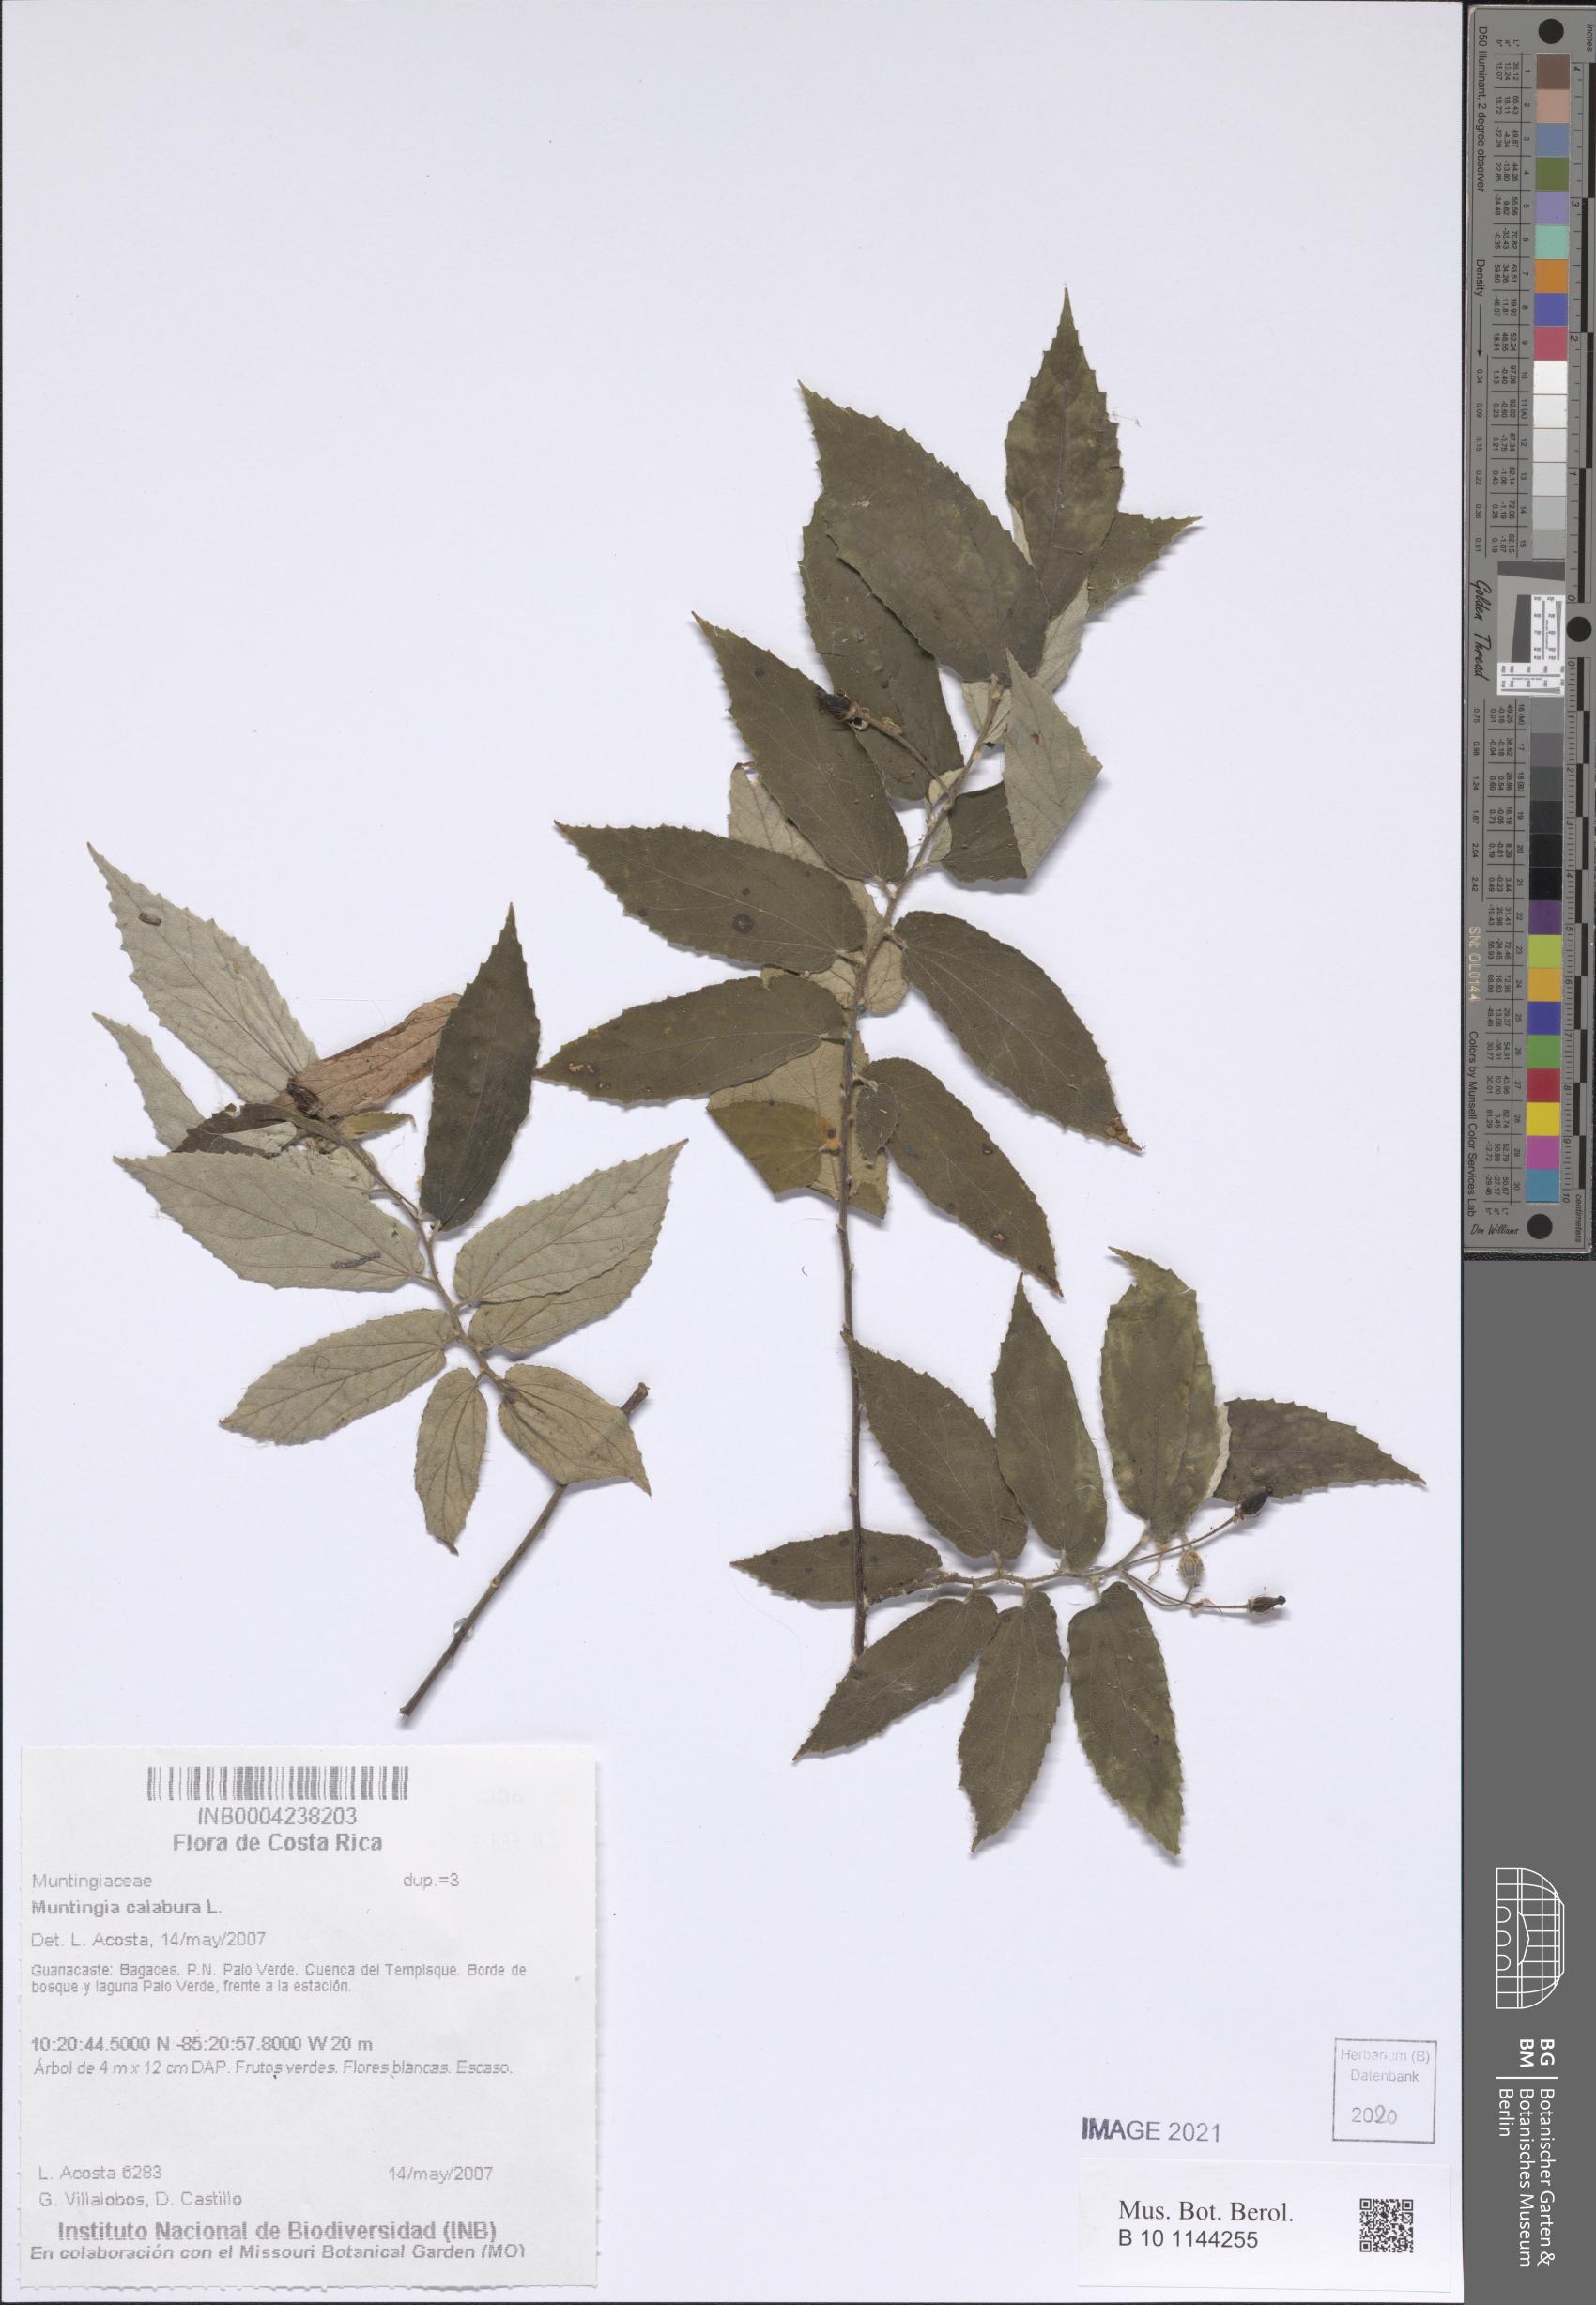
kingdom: Plantae
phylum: Tracheophyta
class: Magnoliopsida
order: Malvales
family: Muntingiaceae
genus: Muntingia
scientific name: Muntingia calabura
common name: Strawberrytree
